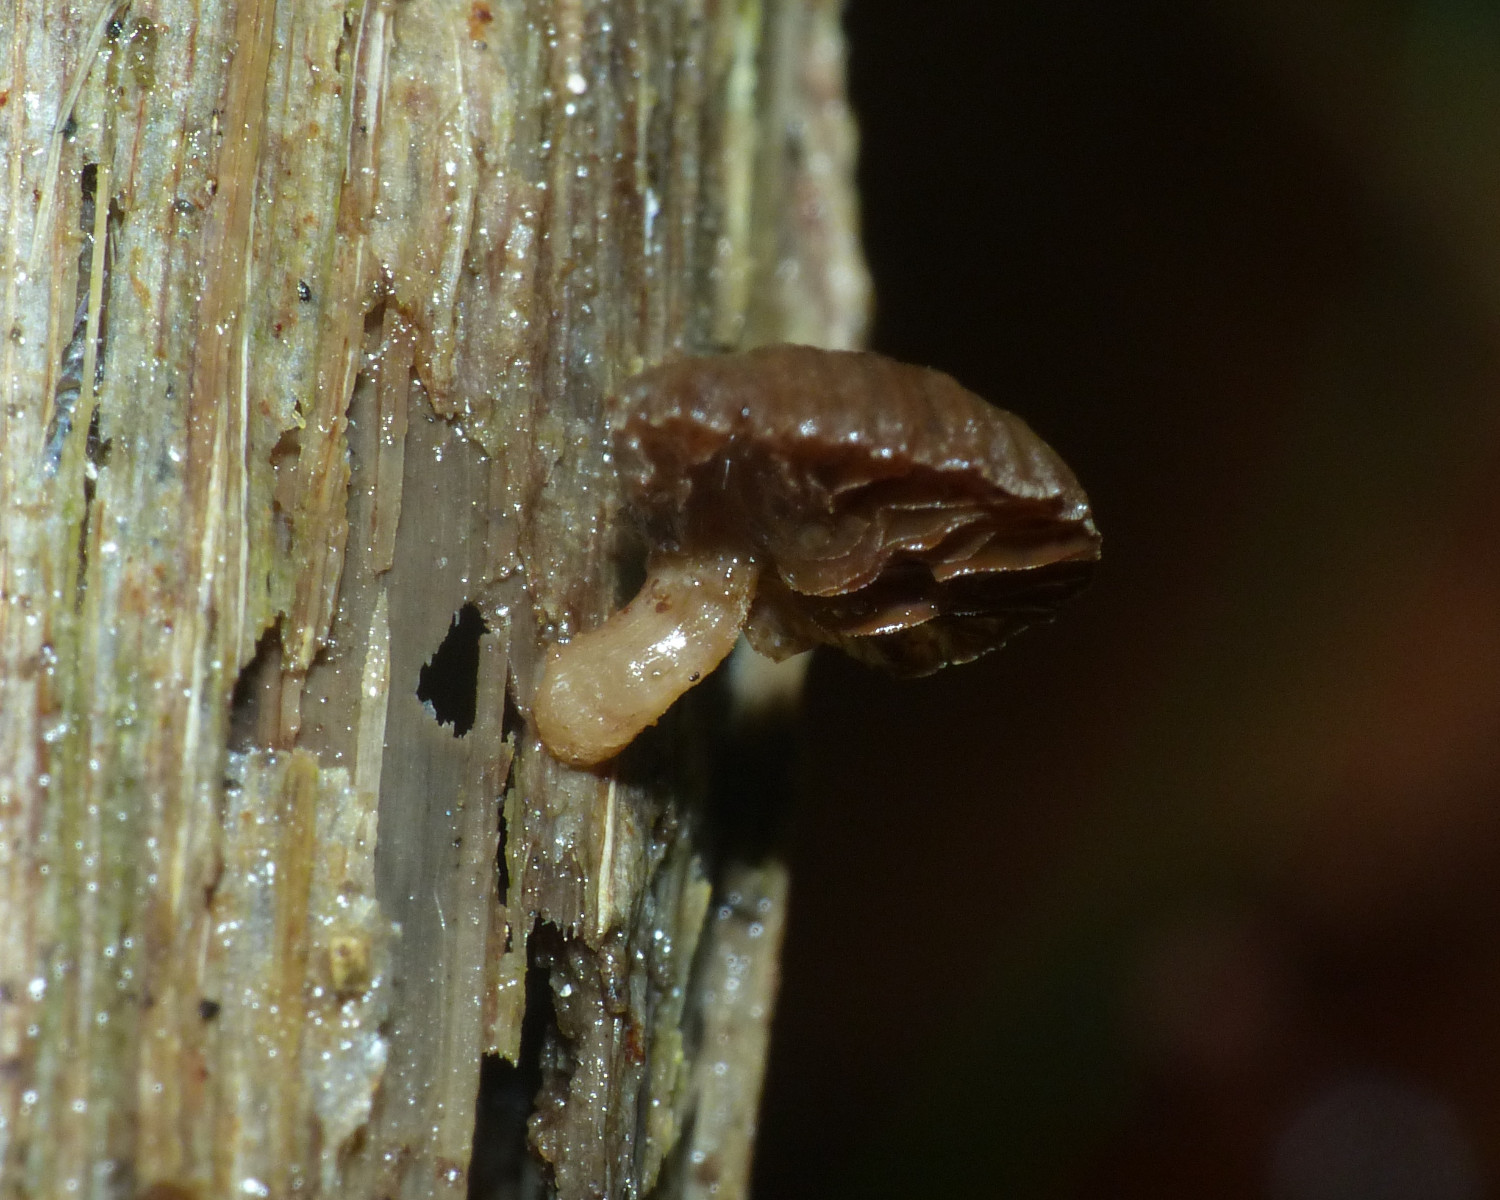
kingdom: Fungi
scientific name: Fungi
